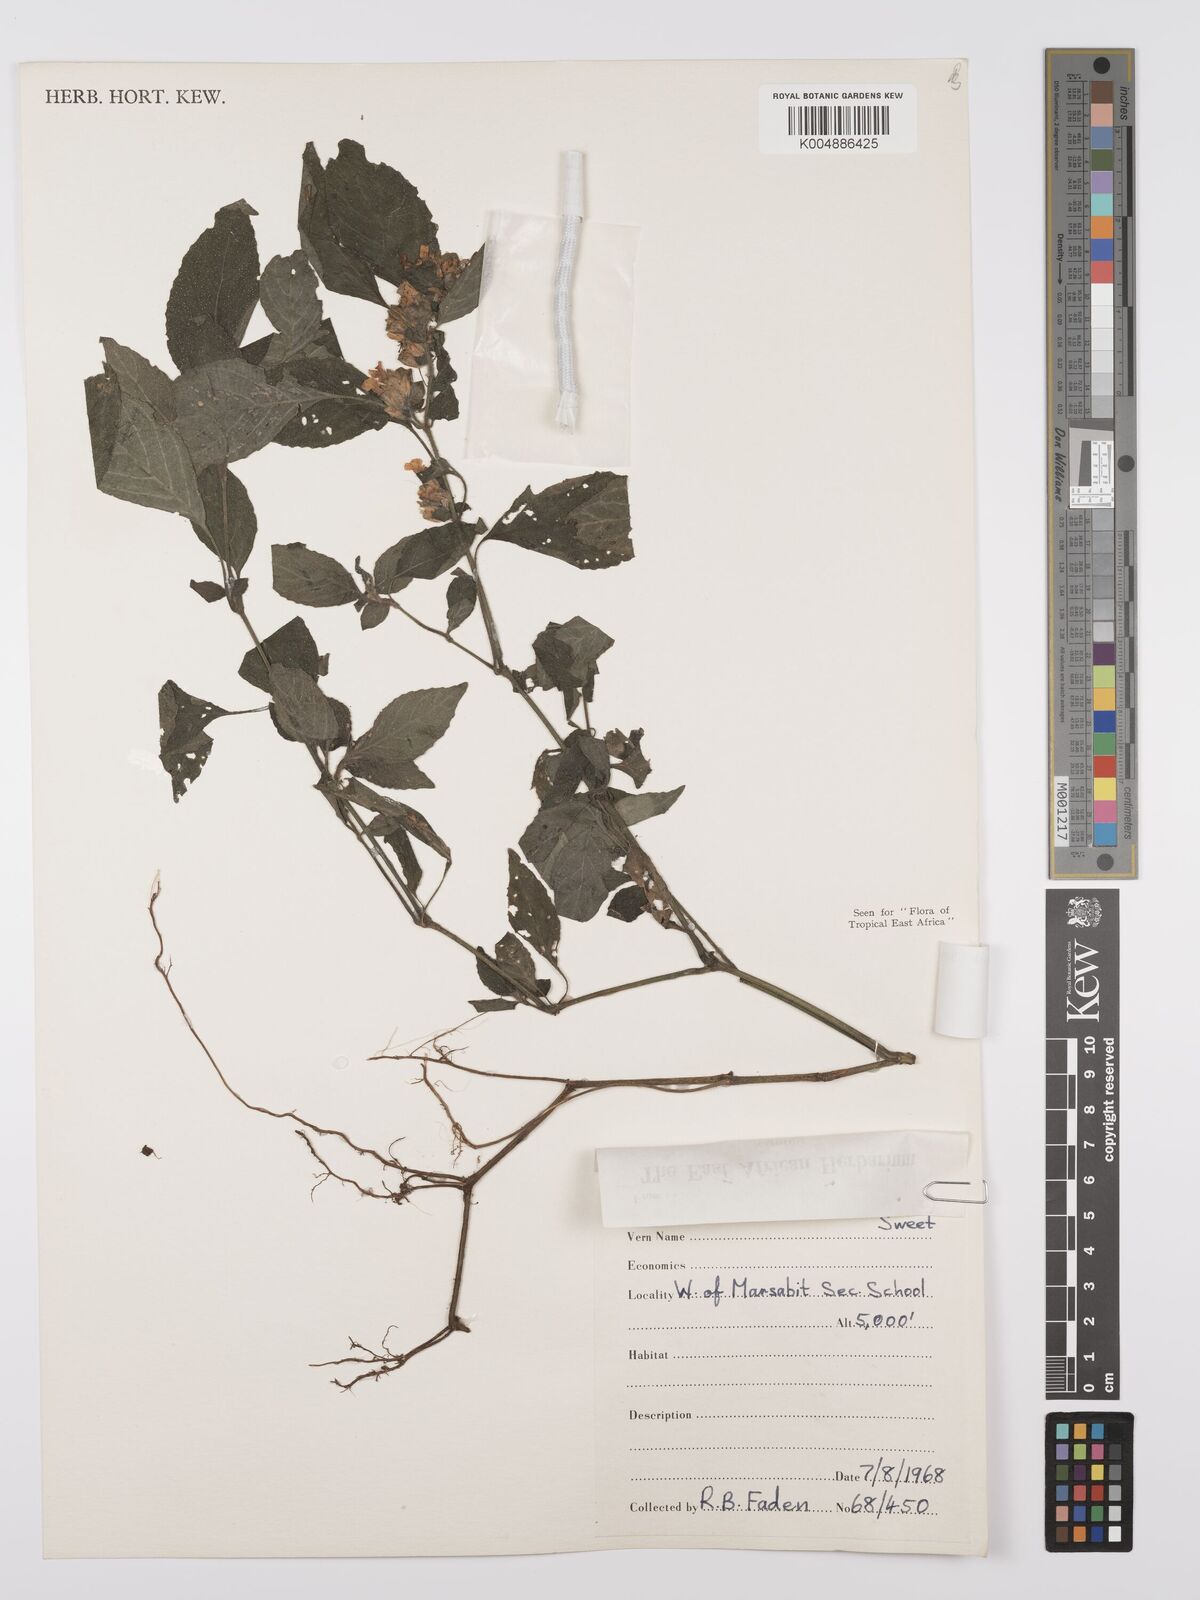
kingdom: Plantae
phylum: Tracheophyta
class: Magnoliopsida
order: Lamiales
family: Acanthaceae
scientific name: Acanthaceae
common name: Acanthaceae
